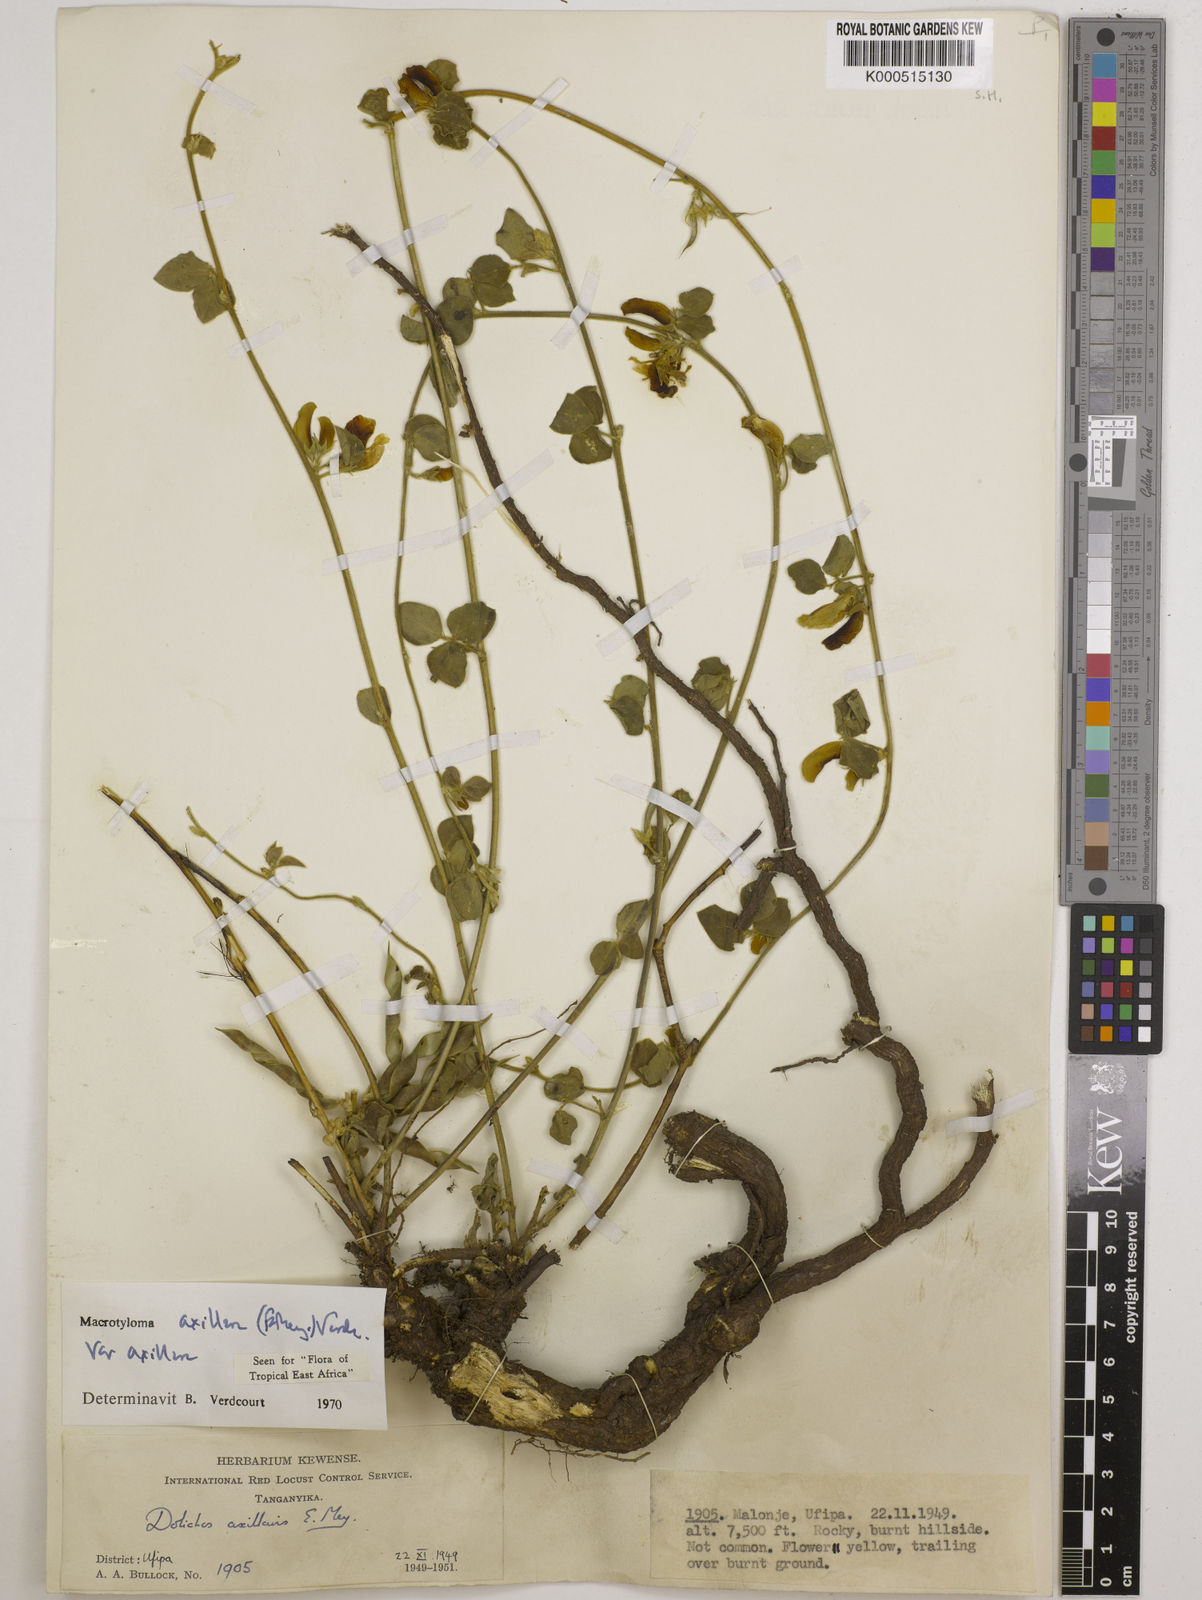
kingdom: Plantae
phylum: Tracheophyta
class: Magnoliopsida
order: Fabales
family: Fabaceae
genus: Macrotyloma
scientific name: Macrotyloma axillare
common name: Perennial horsegram
